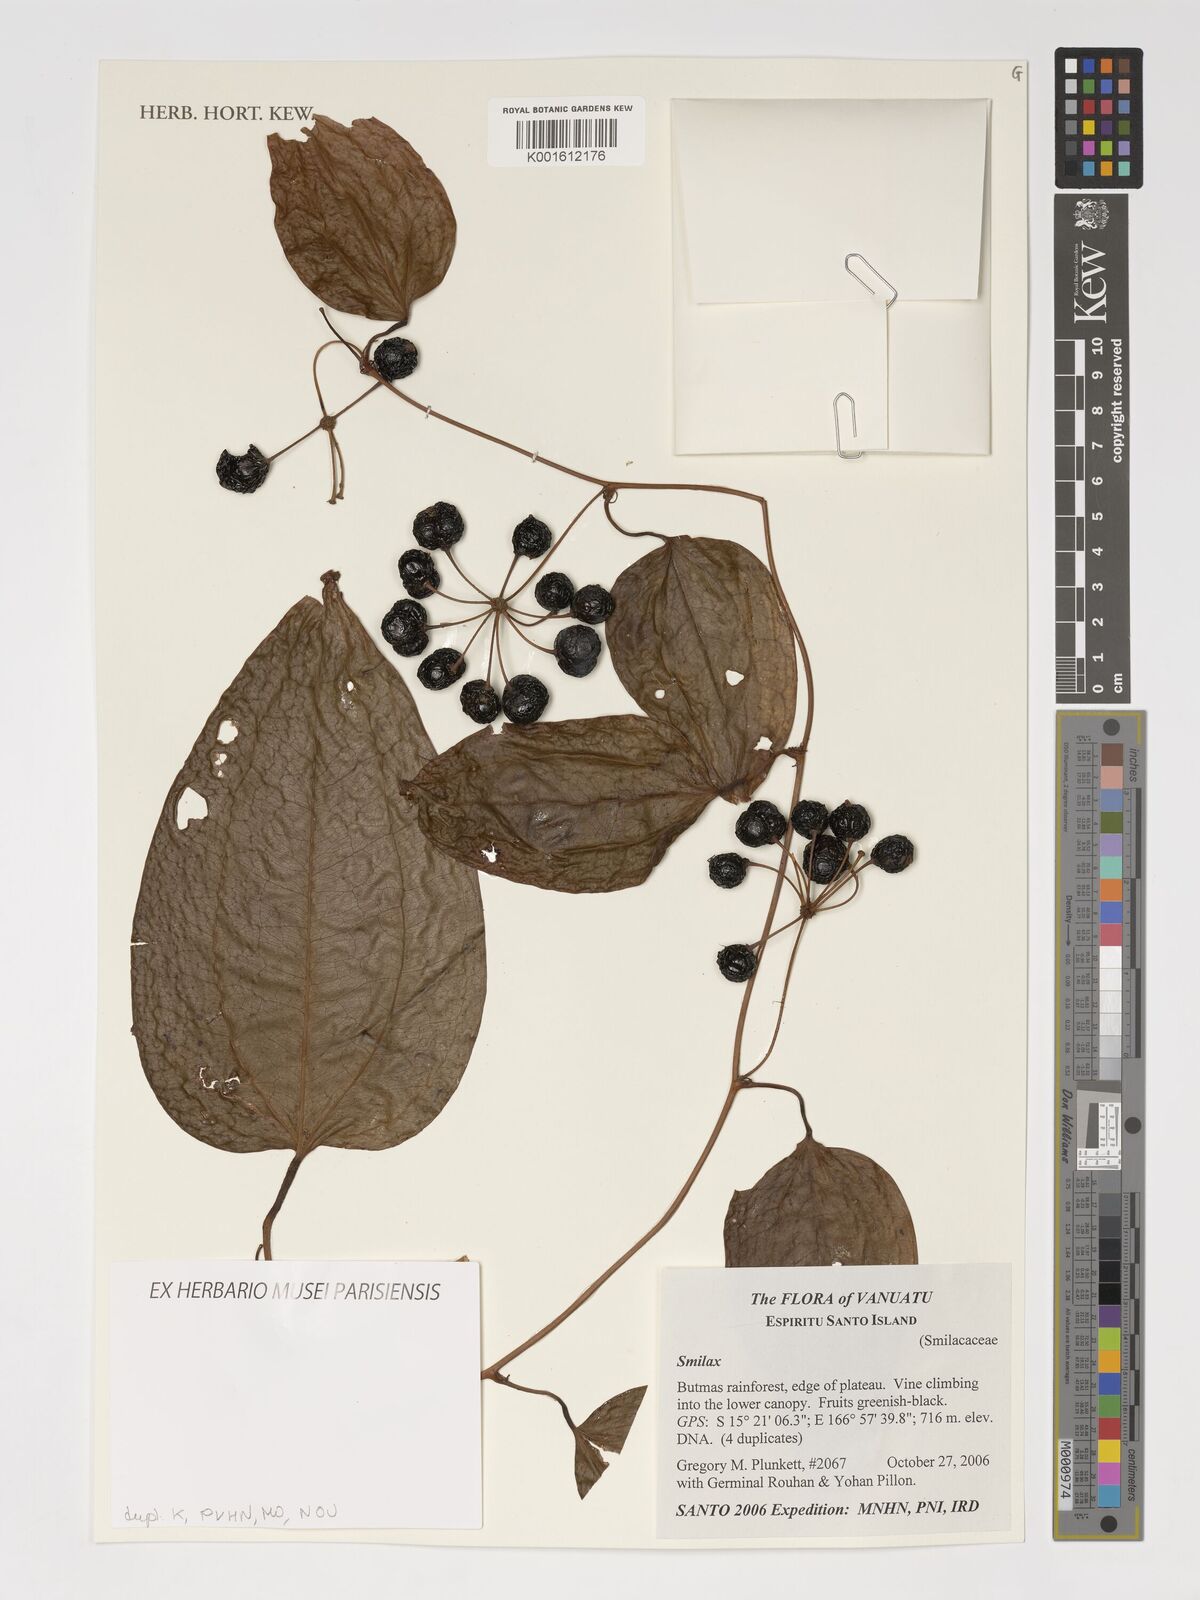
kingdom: Plantae
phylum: Tracheophyta
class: Liliopsida
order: Liliales
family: Smilacaceae
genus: Smilax
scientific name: Smilax
